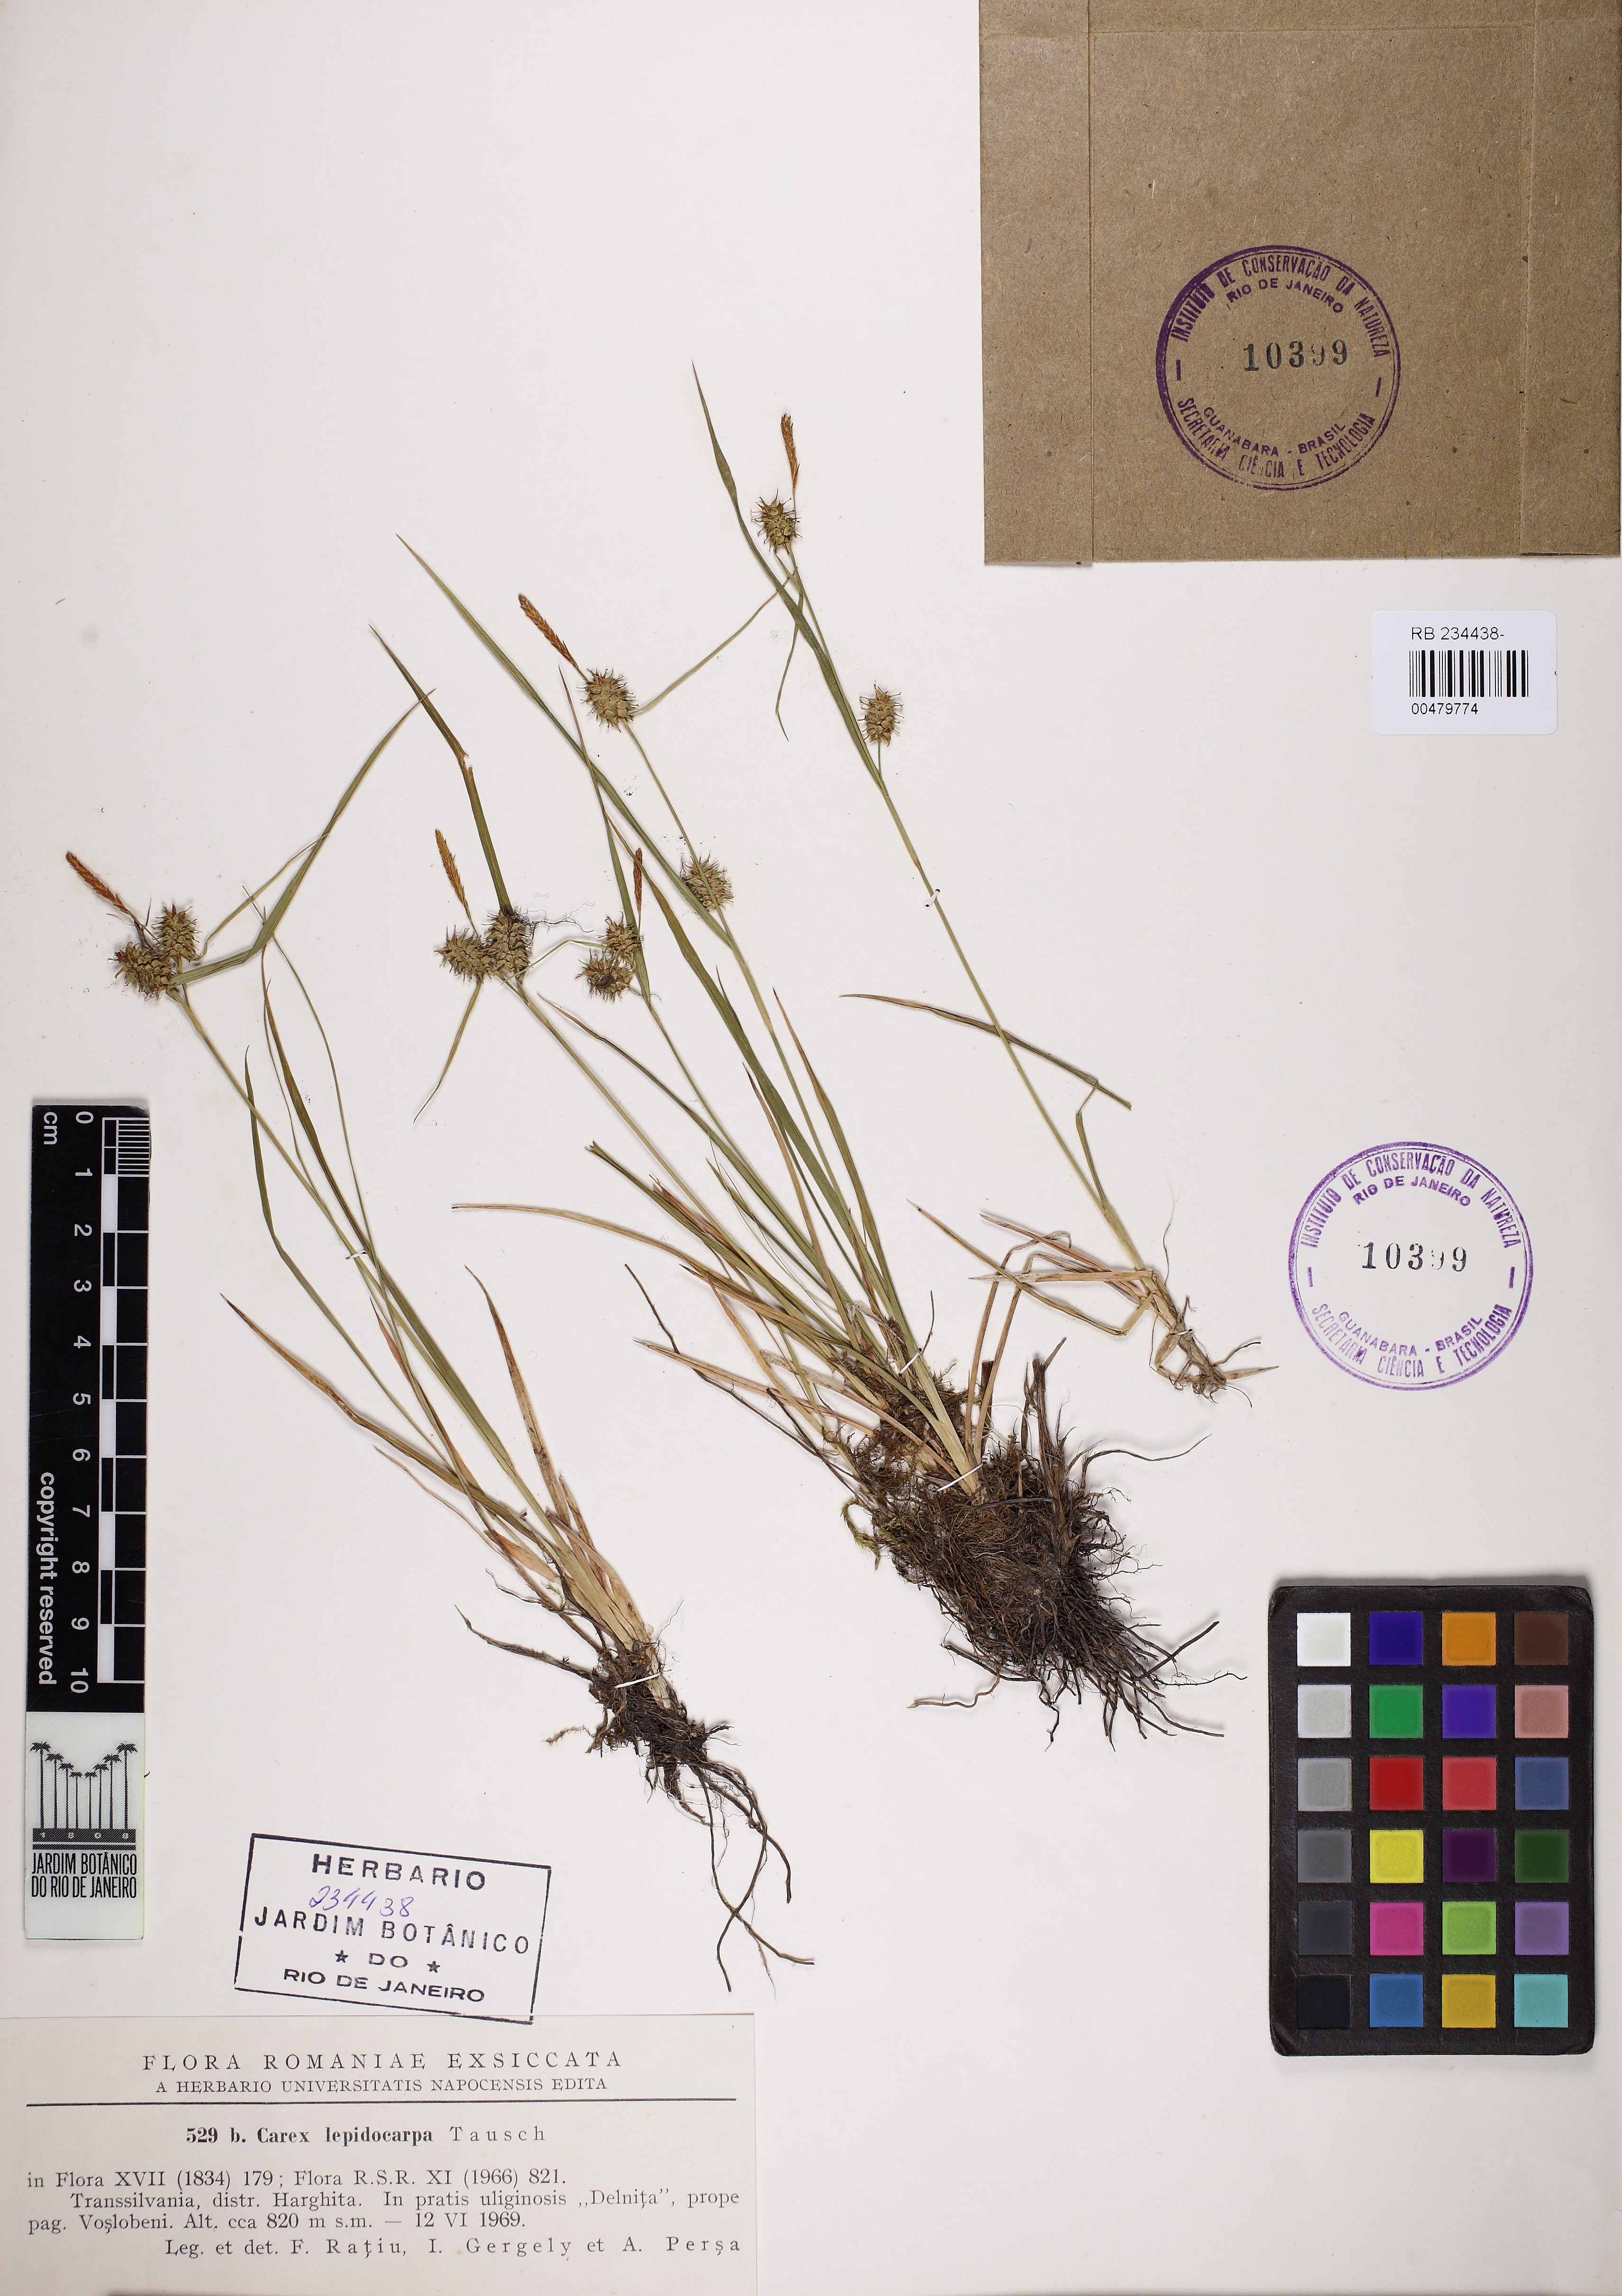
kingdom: Plantae
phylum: Tracheophyta
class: Liliopsida
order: Poales
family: Cyperaceae
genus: Carex
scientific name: Carex lepidocarpa
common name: Long-stalked yellow-sedge
